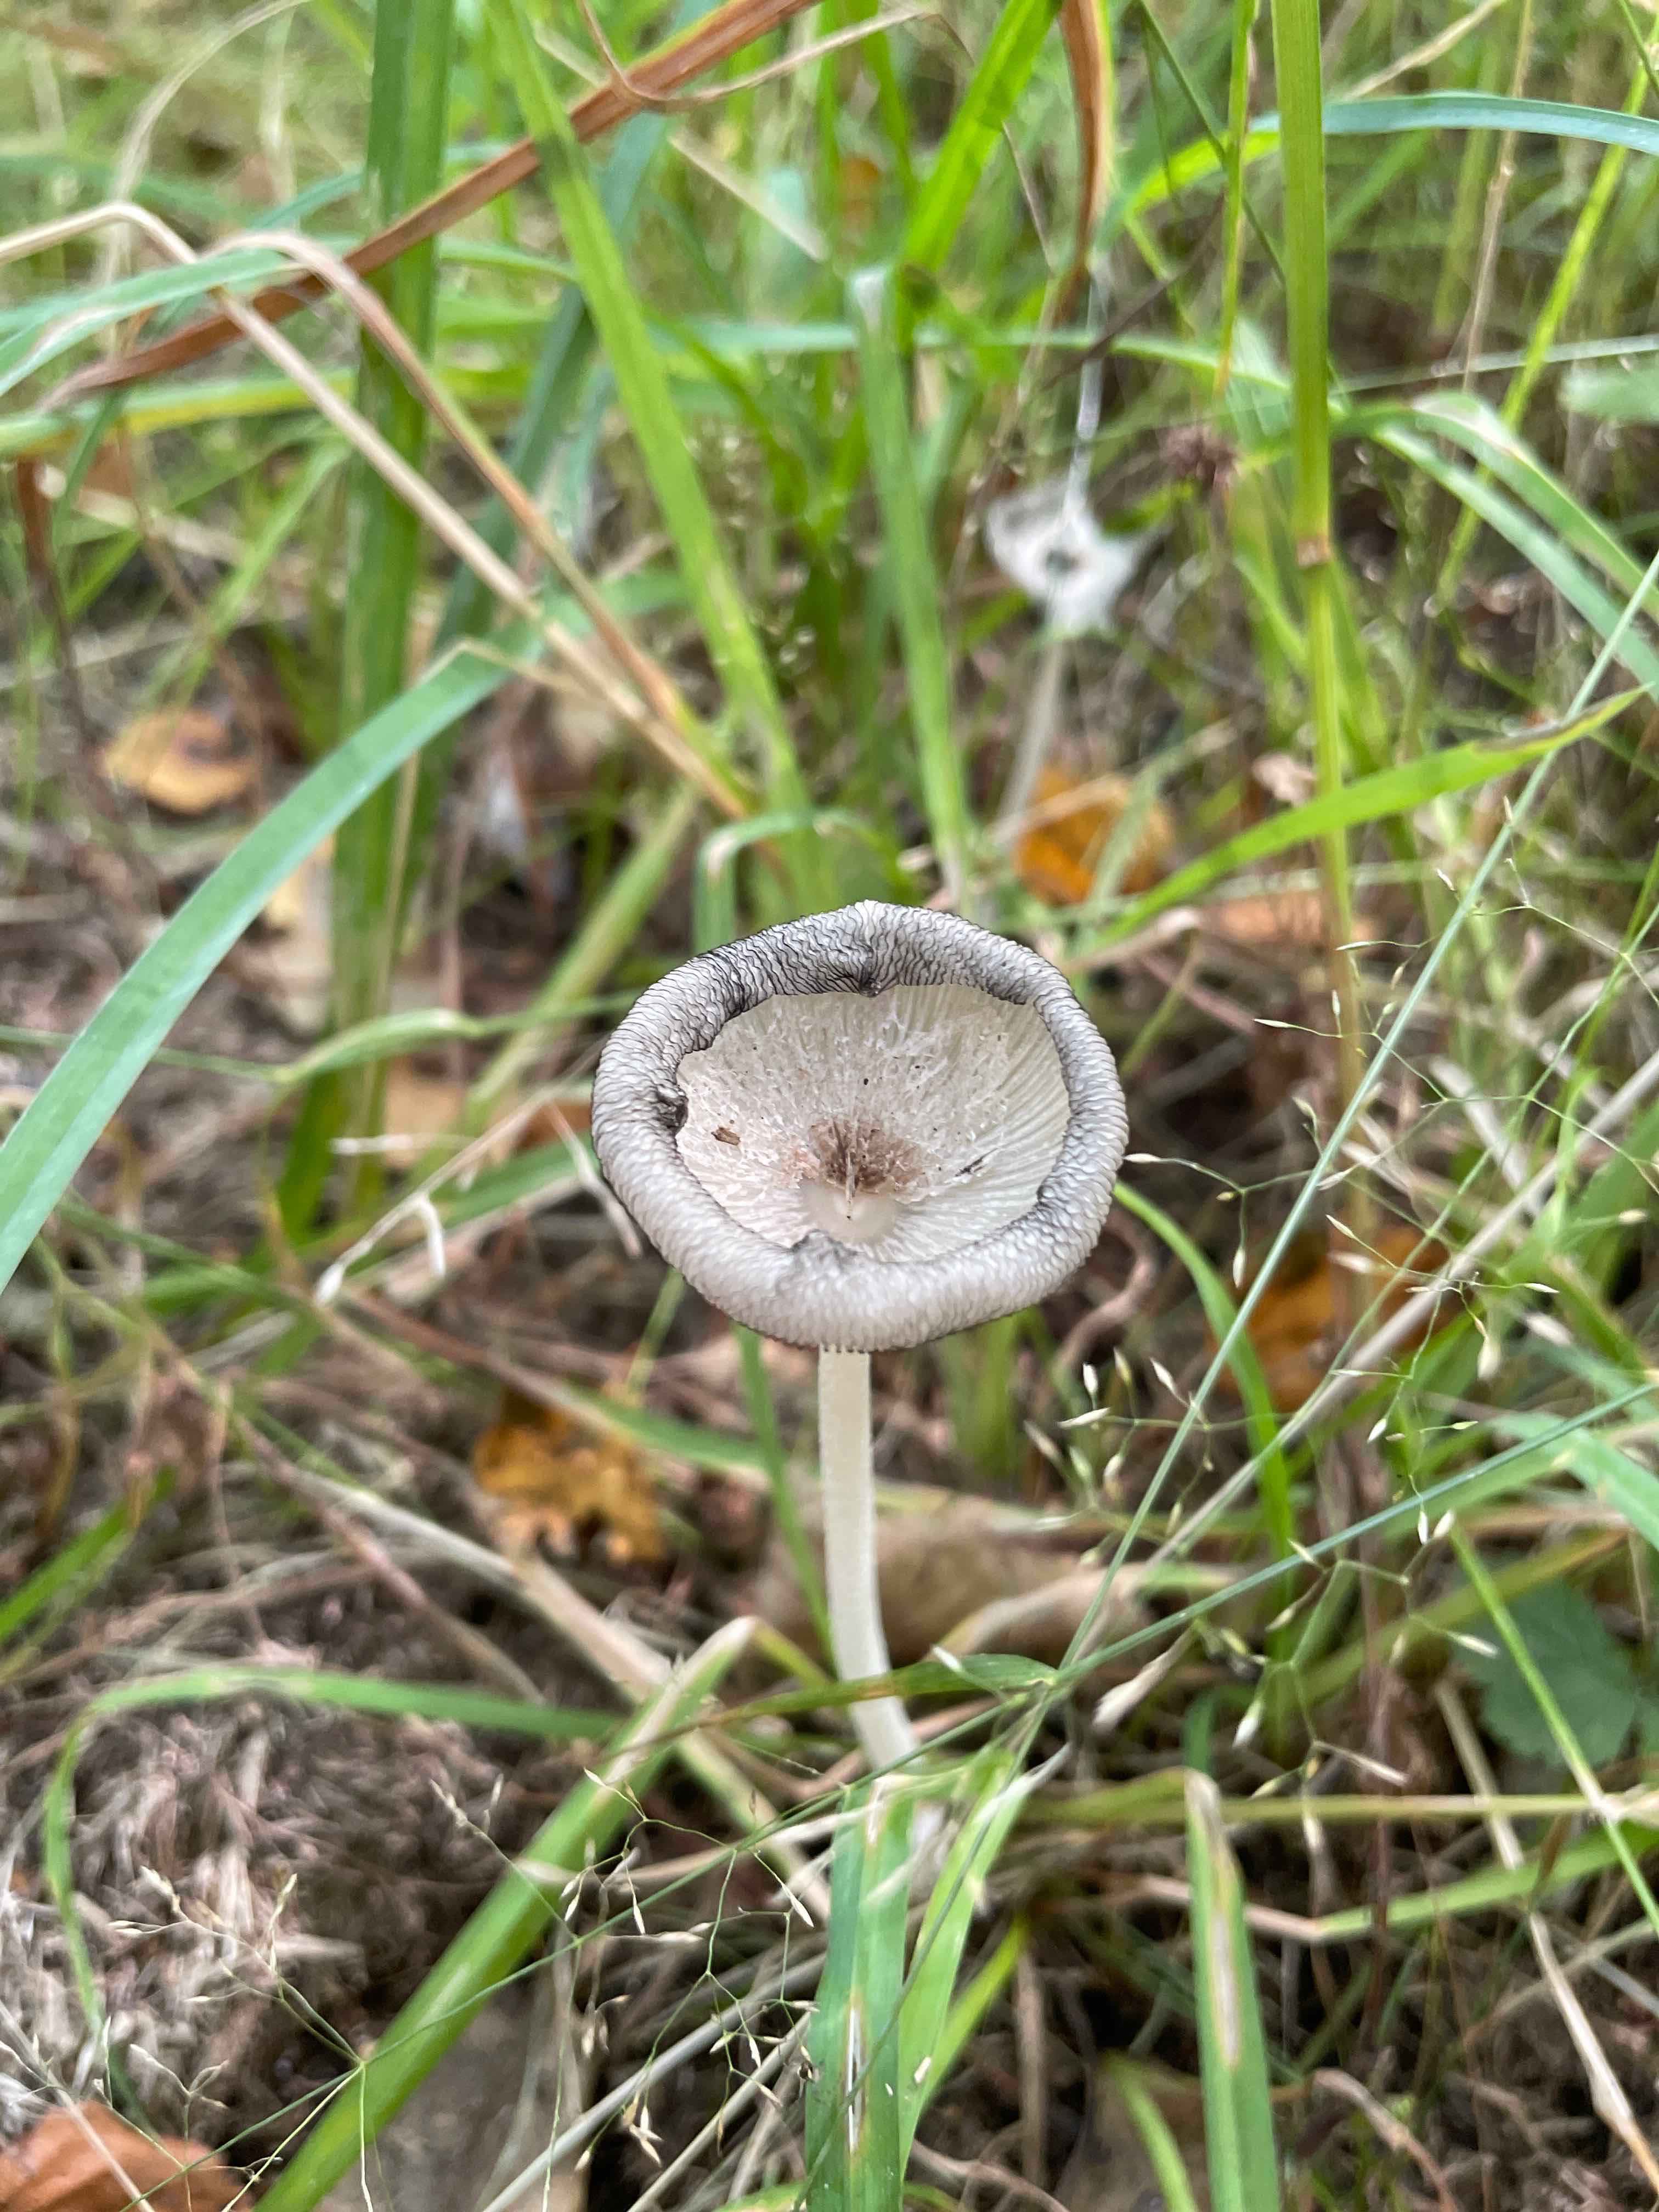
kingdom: Fungi
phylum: Basidiomycota
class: Agaricomycetes
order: Agaricales
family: Psathyrellaceae
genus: Coprinopsis
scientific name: Coprinopsis lagopus
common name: dunstokket blækhat
